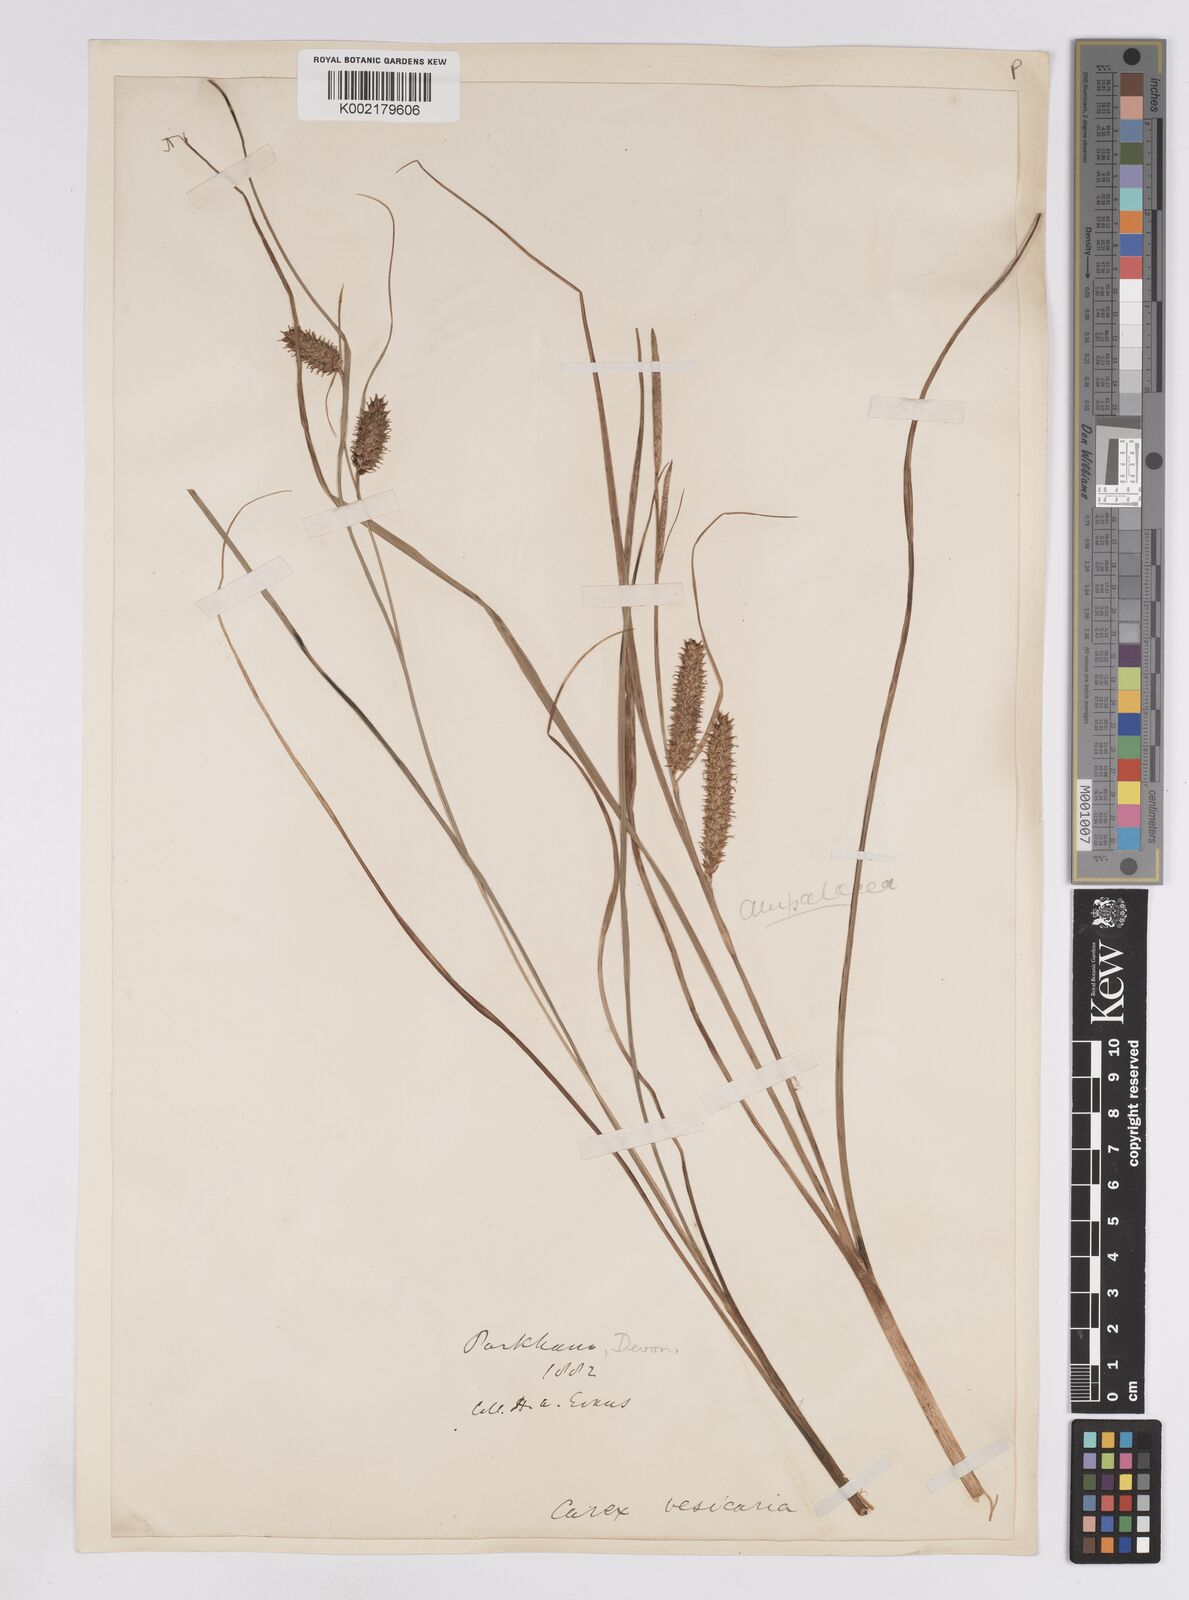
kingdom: Plantae
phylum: Tracheophyta
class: Liliopsida
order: Poales
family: Cyperaceae
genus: Carex
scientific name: Carex rostrata
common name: Bottle sedge
